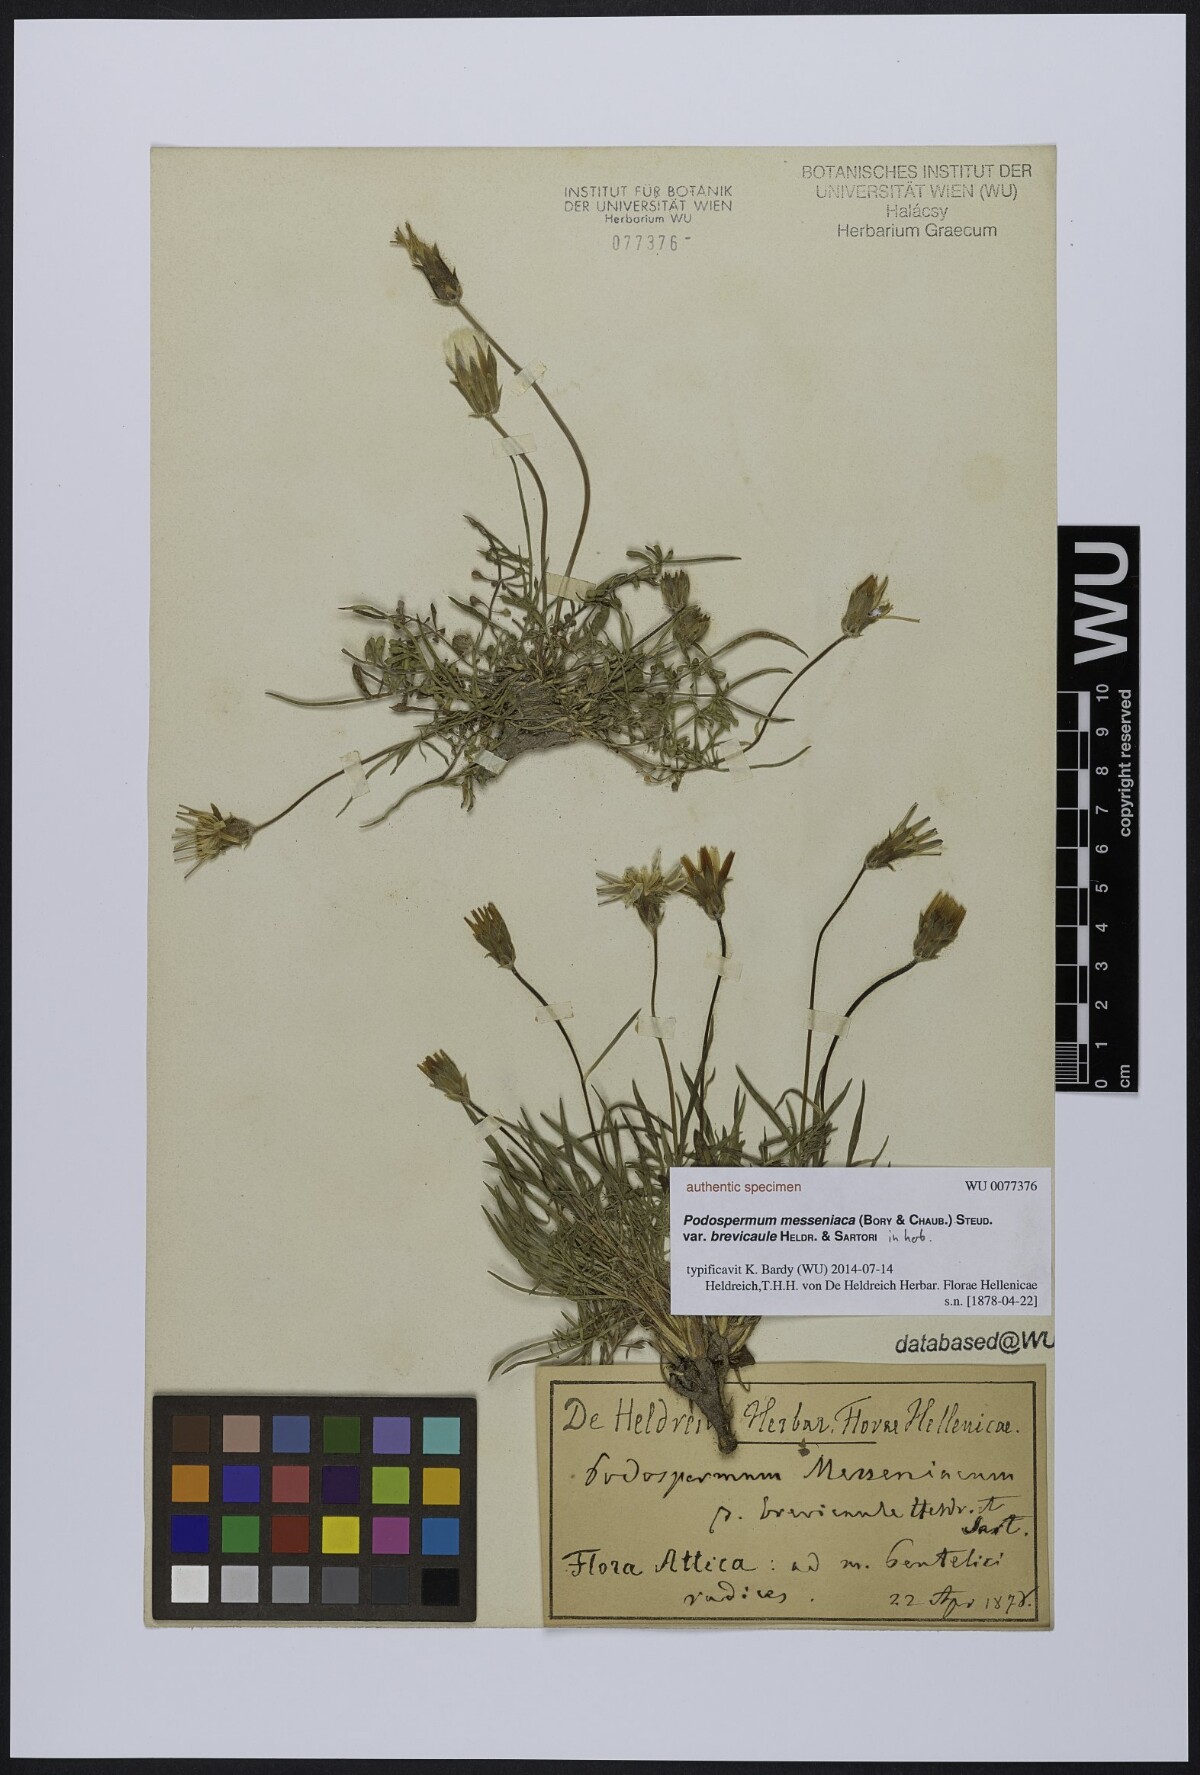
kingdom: Plantae
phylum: Tracheophyta
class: Magnoliopsida
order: Asterales
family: Asteraceae
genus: Scorzonera
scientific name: Scorzonera calcitrapifolia
